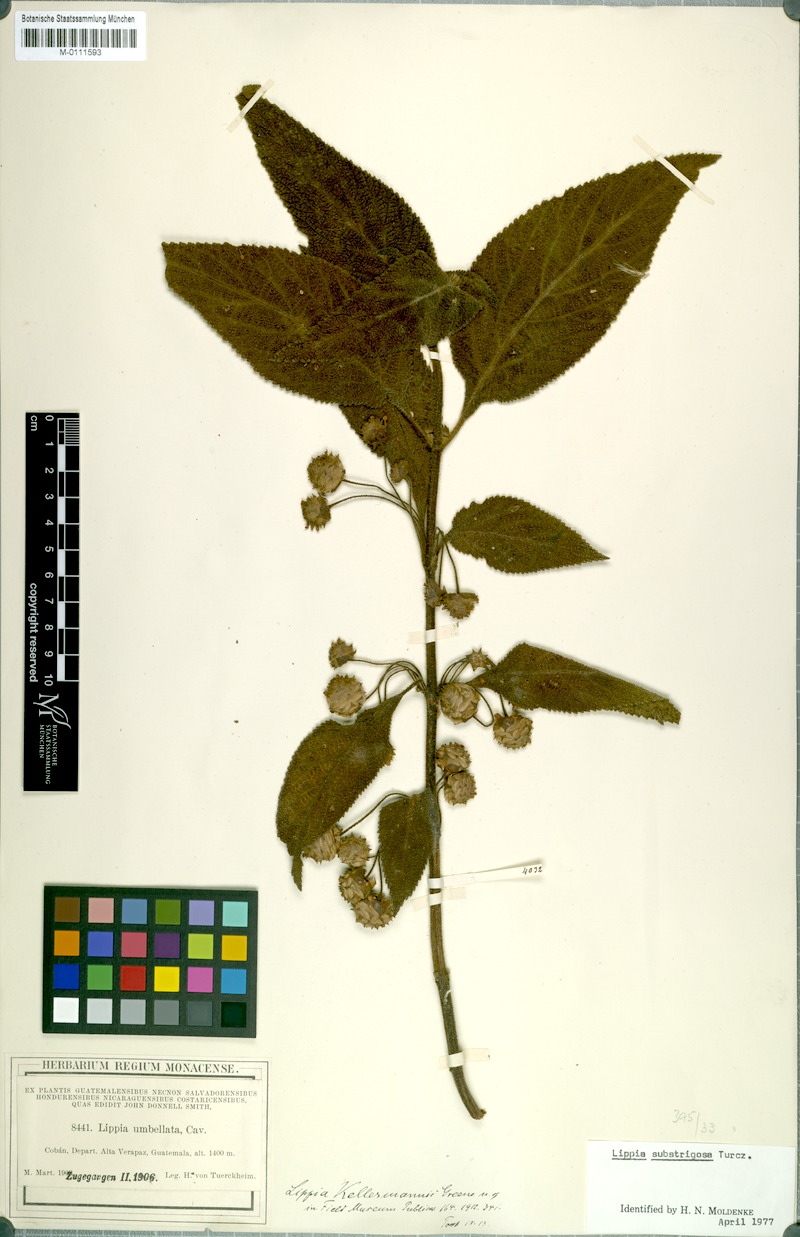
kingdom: Plantae
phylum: Tracheophyta
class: Magnoliopsida
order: Lamiales
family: Verbenaceae
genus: Lippia
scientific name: Lippia umbellata
